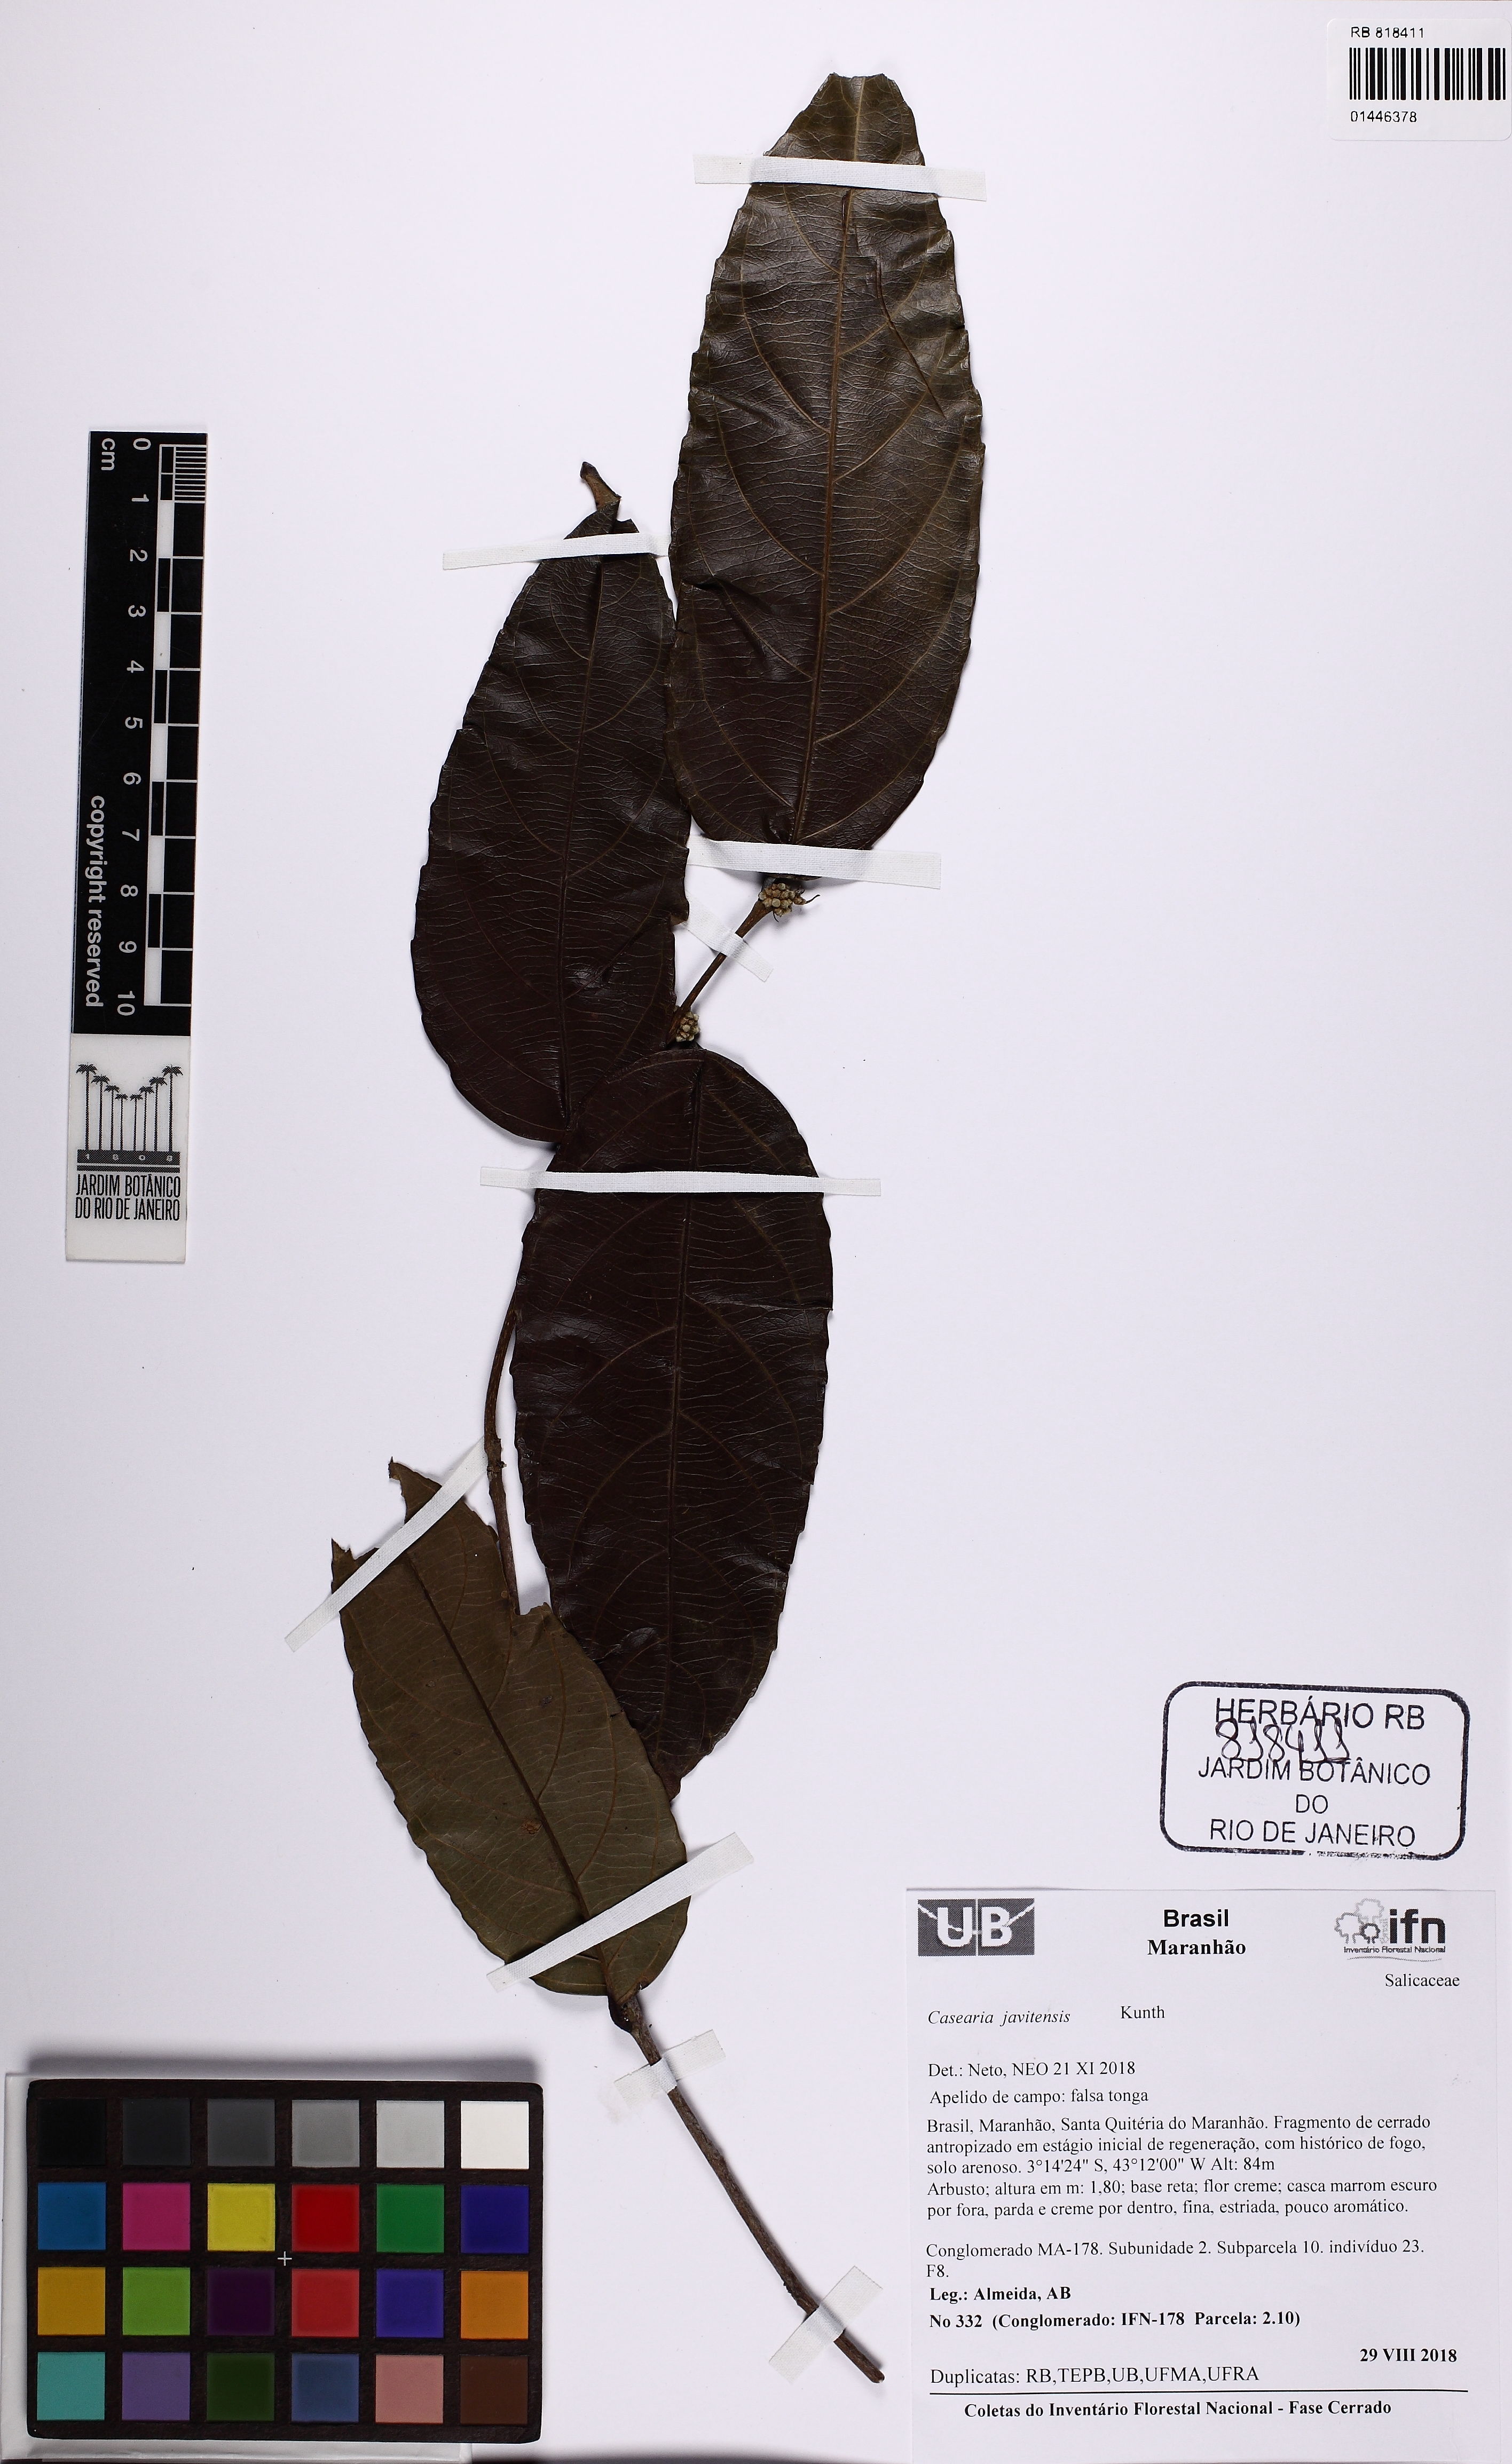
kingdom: Plantae
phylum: Tracheophyta
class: Magnoliopsida
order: Malpighiales
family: Salicaceae
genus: Piparea
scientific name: Piparea multiflora
